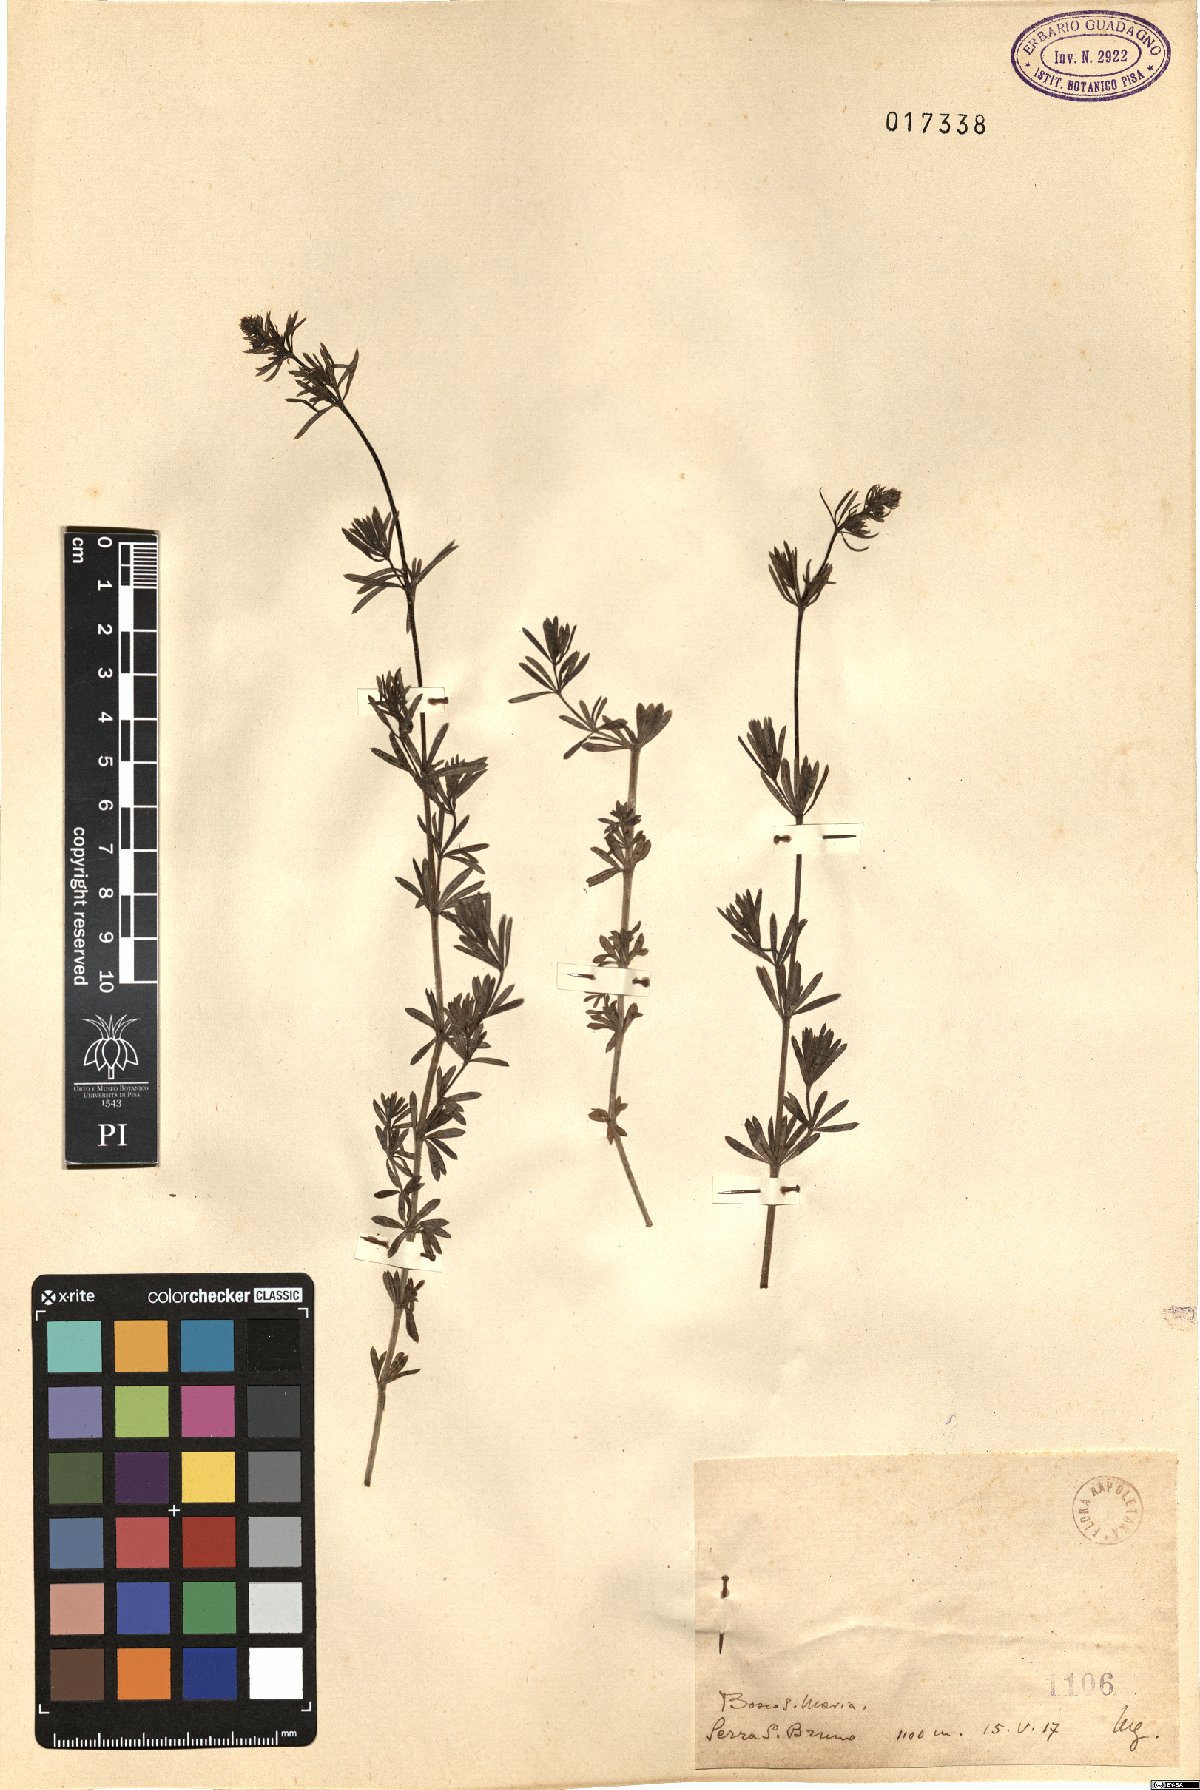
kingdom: Plantae
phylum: Tracheophyta
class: Magnoliopsida
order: Gentianales
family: Rubiaceae
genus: Galium
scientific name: Galium
